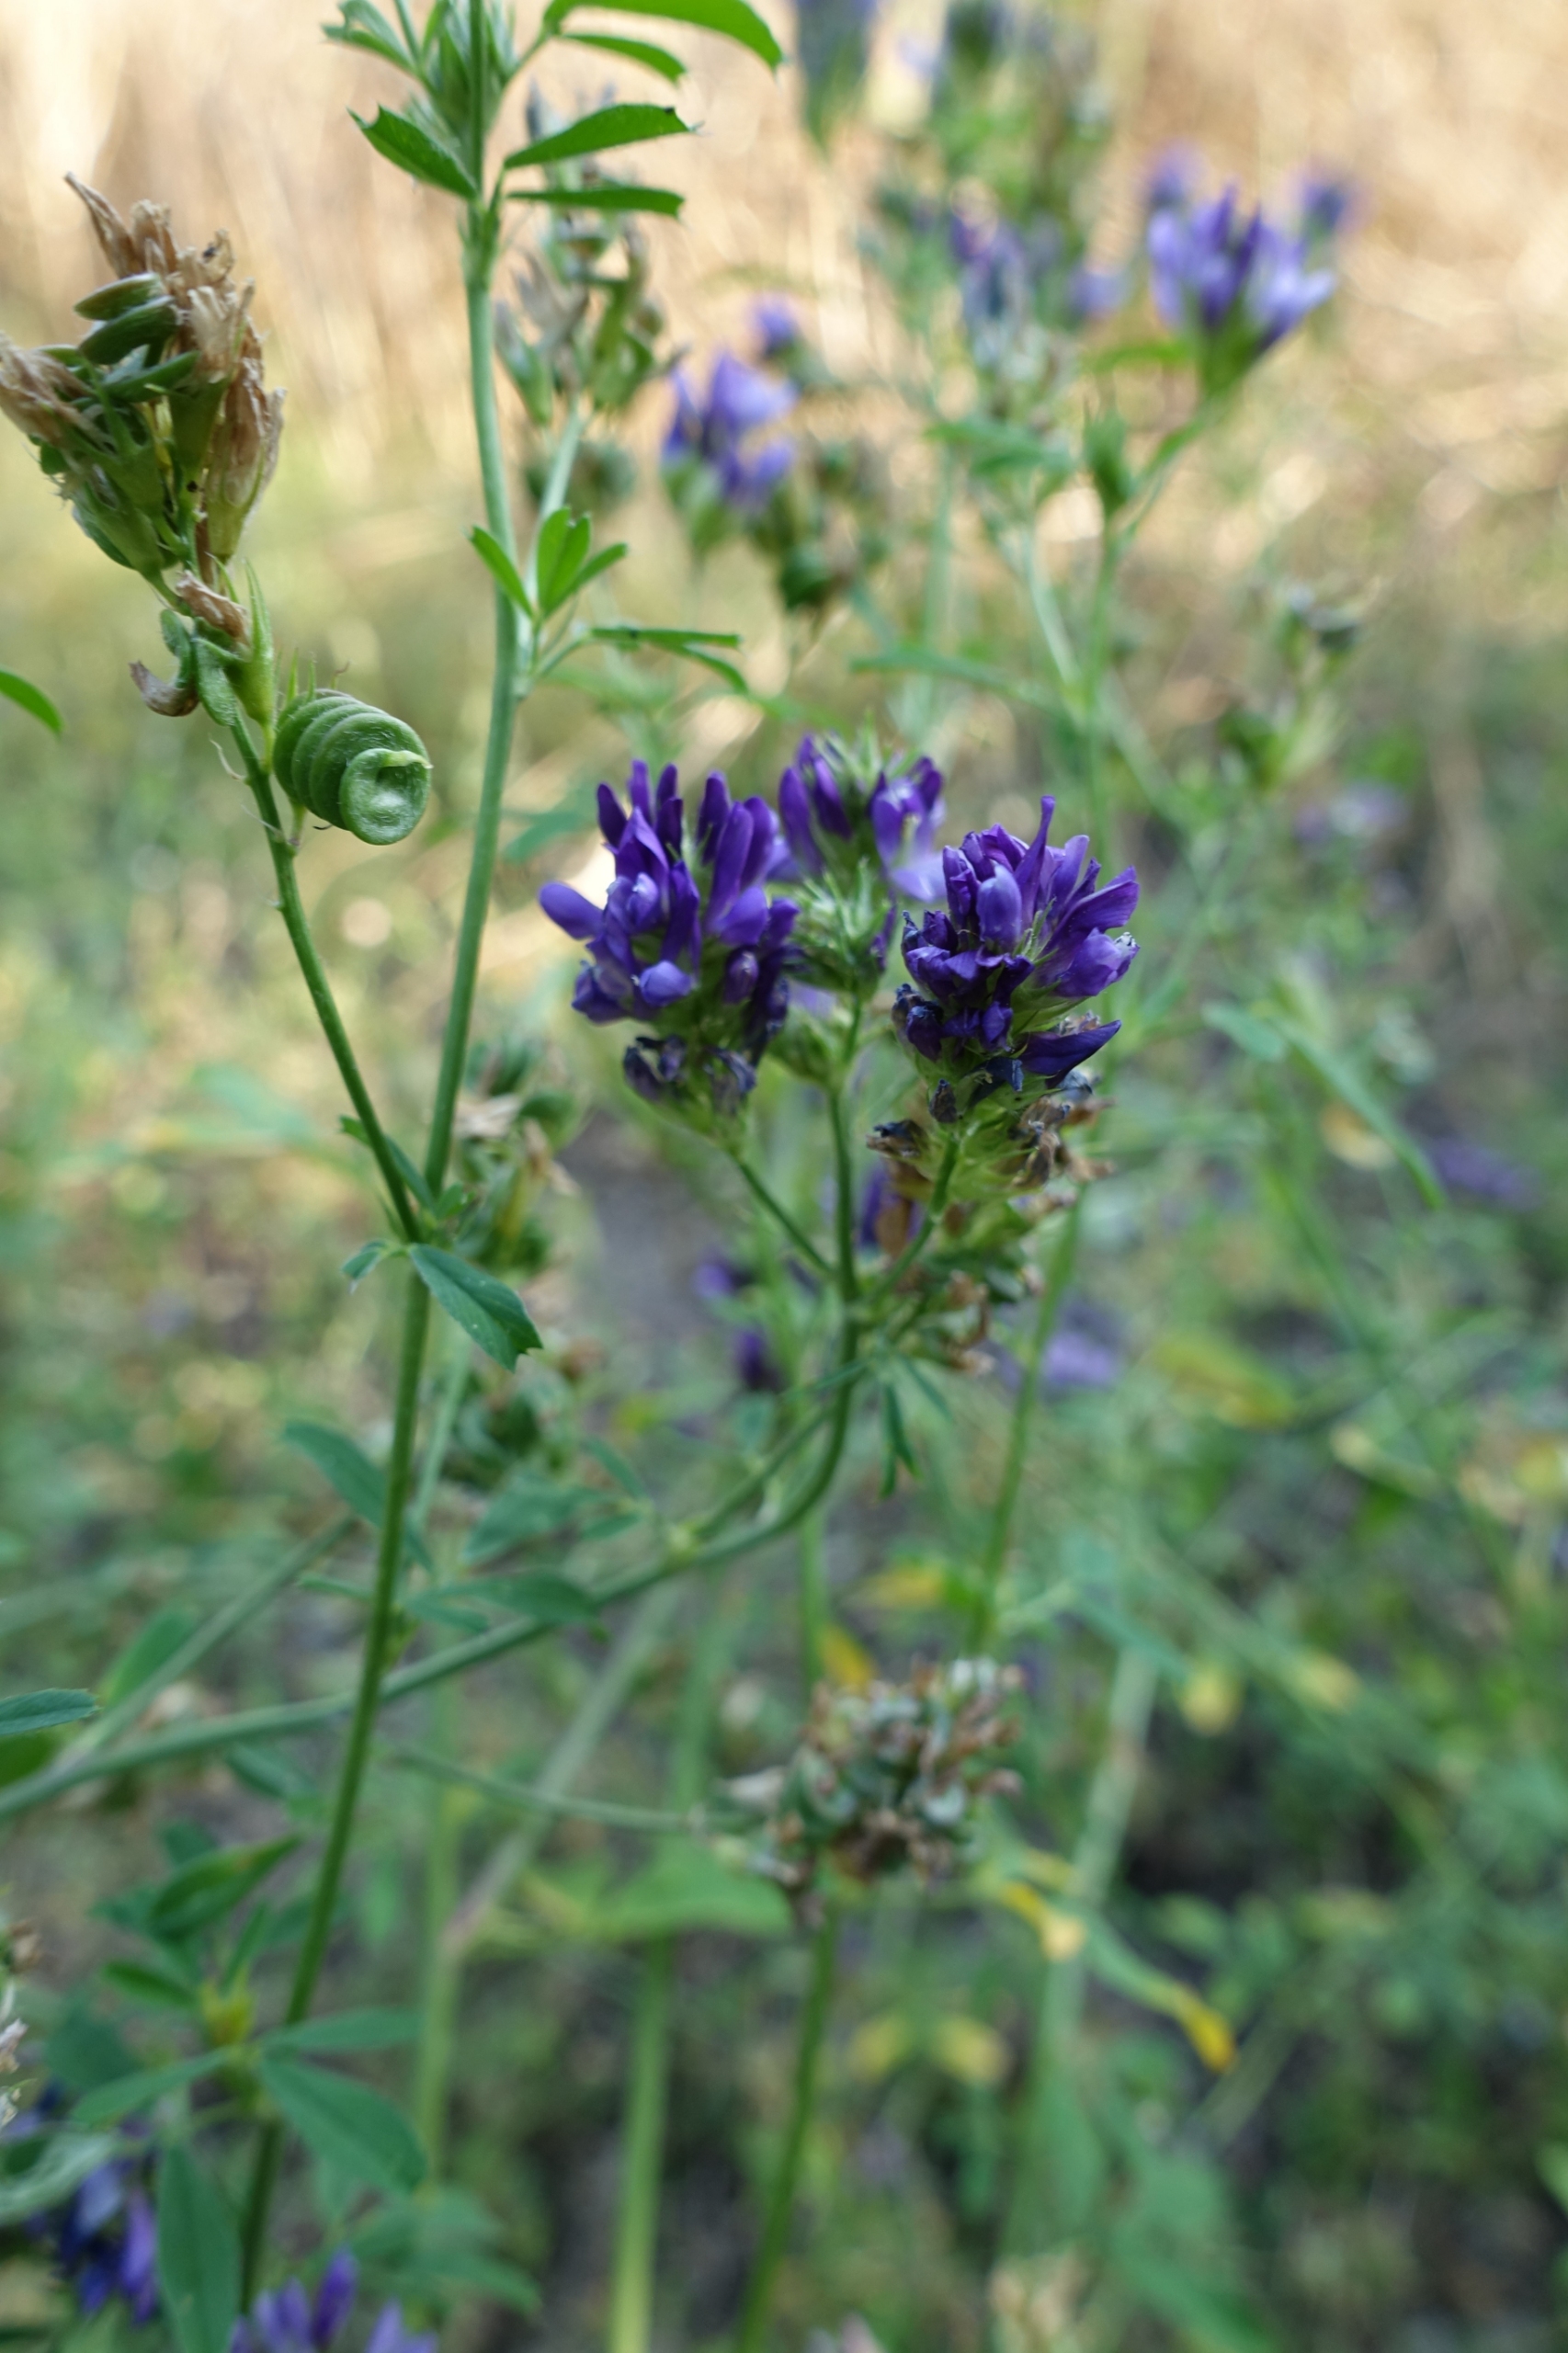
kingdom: Plantae
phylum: Tracheophyta
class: Magnoliopsida
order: Fabales
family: Fabaceae
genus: Medicago
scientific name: Medicago sativa
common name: Lucerne
